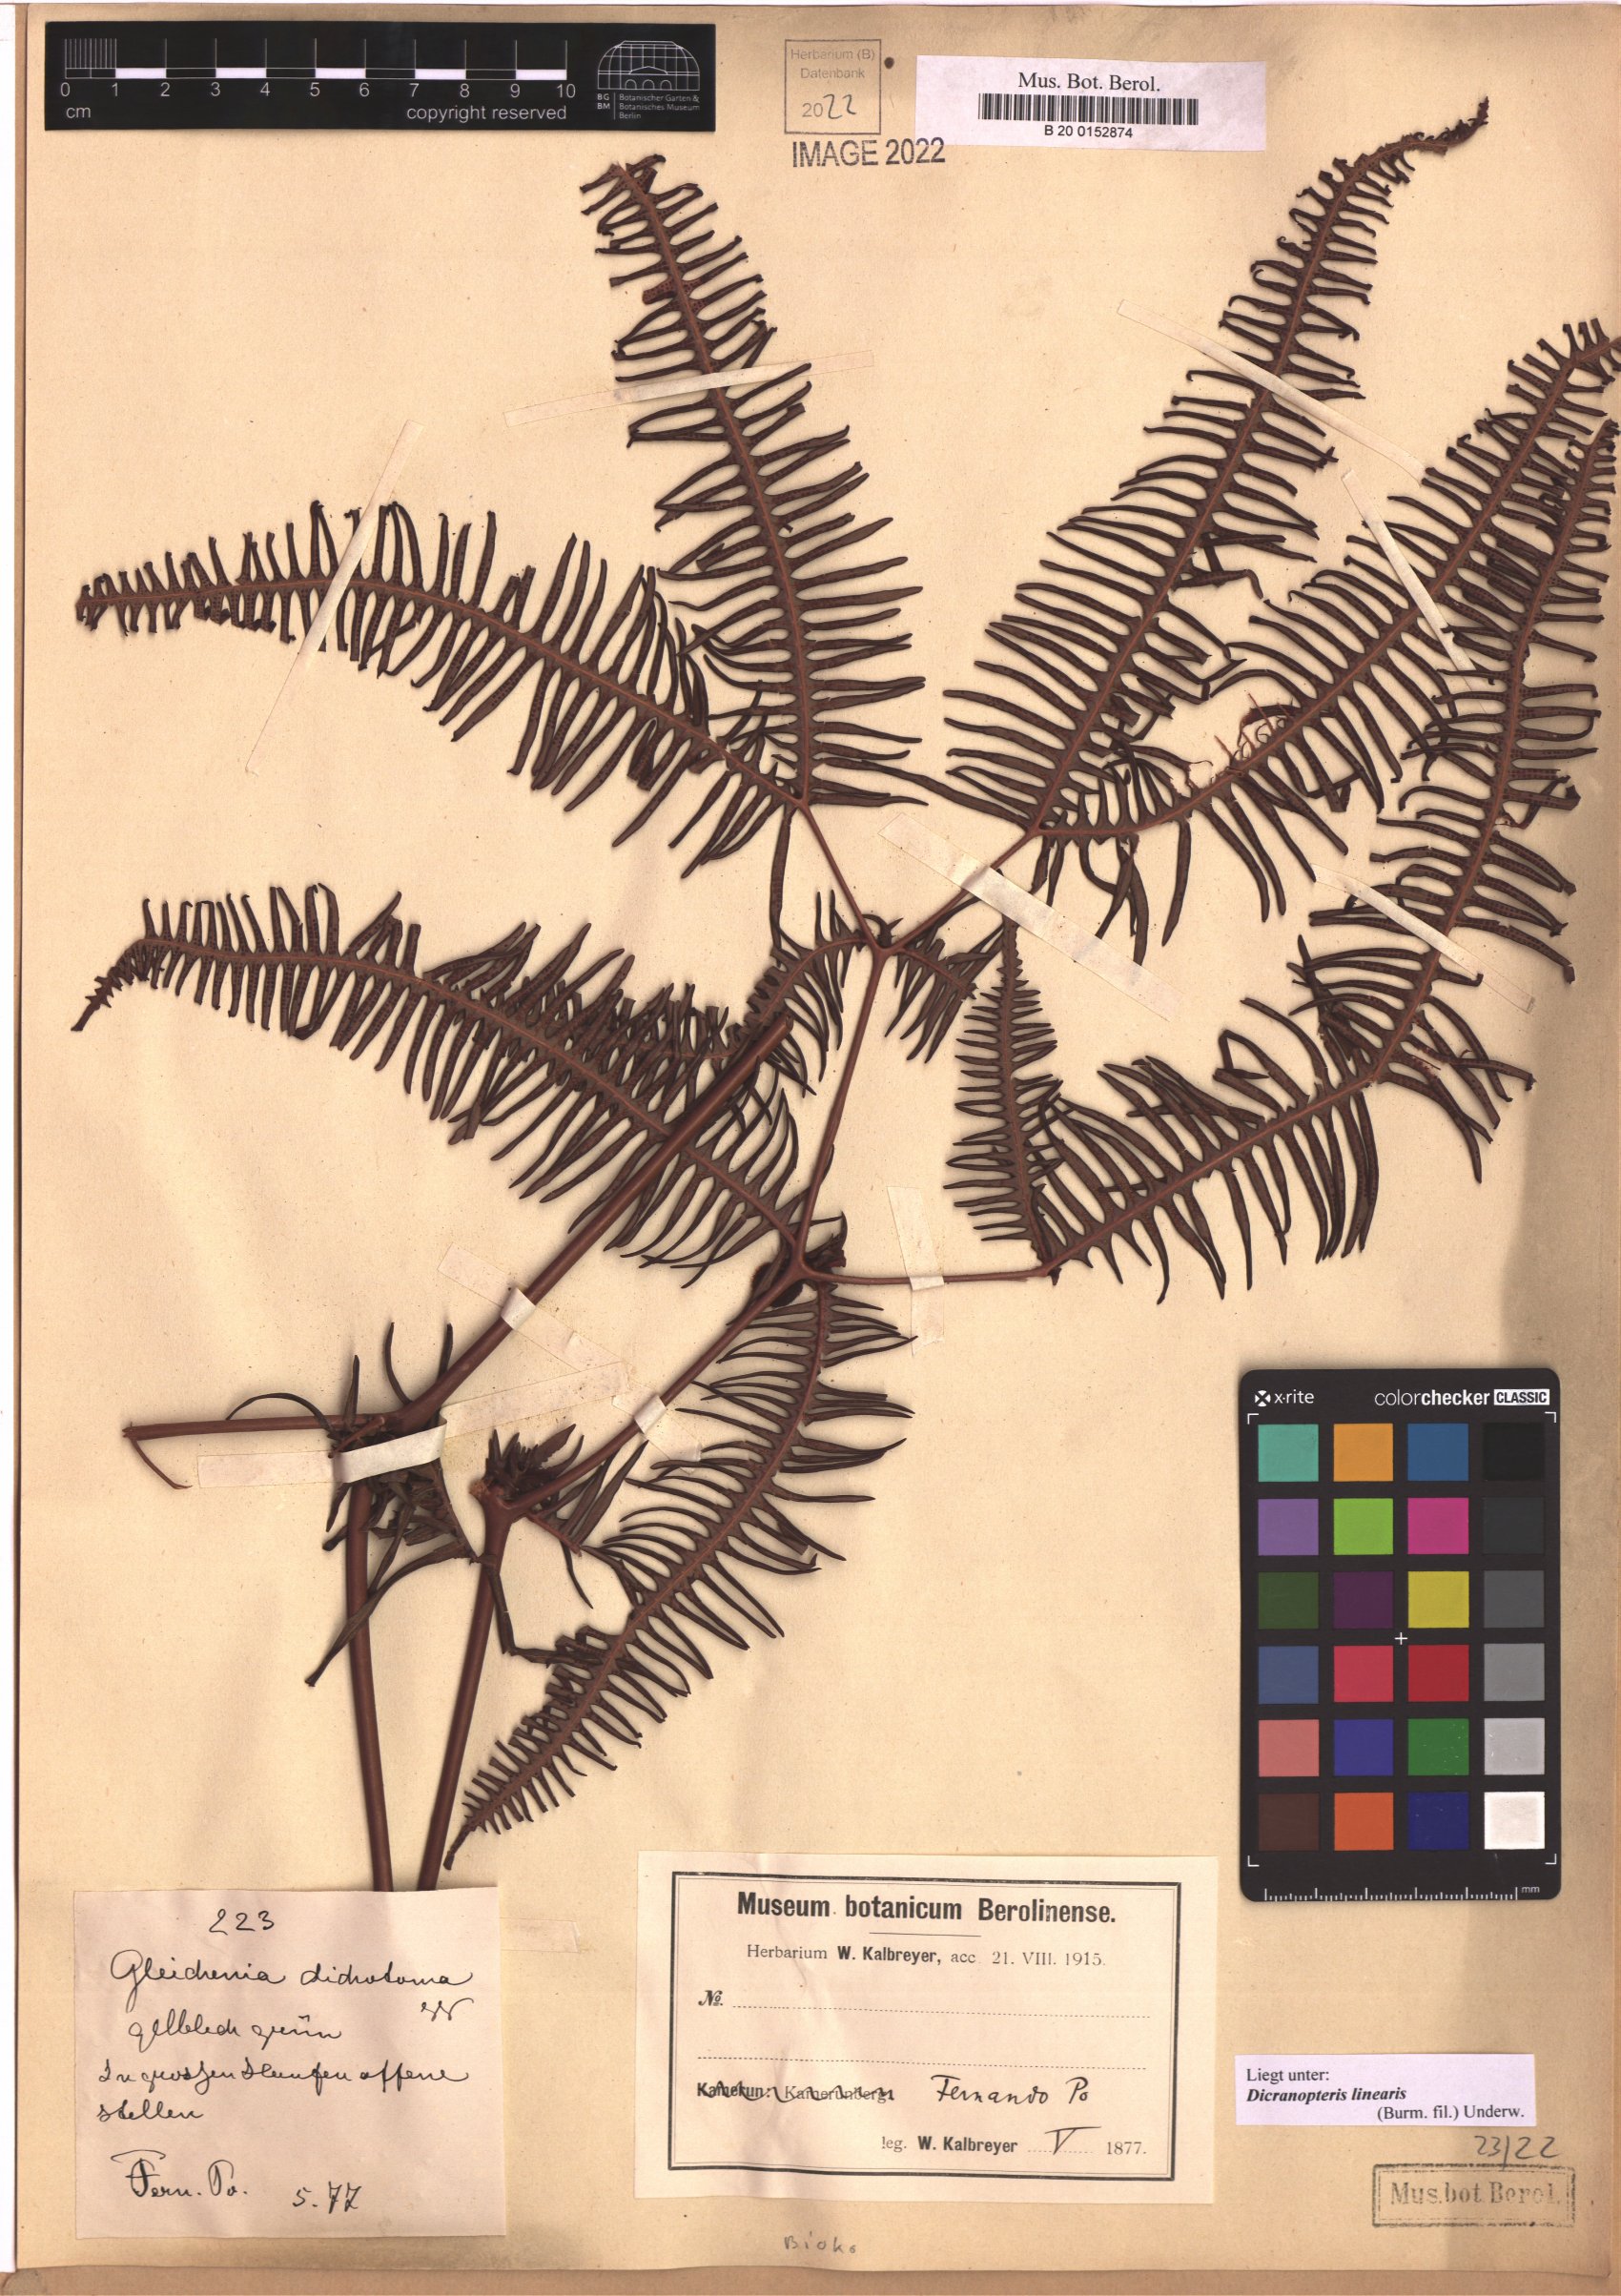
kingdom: Plantae
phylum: Tracheophyta
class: Polypodiopsida
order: Gleicheniales
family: Gleicheniaceae
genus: Dicranopteris
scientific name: Dicranopteris linearis
